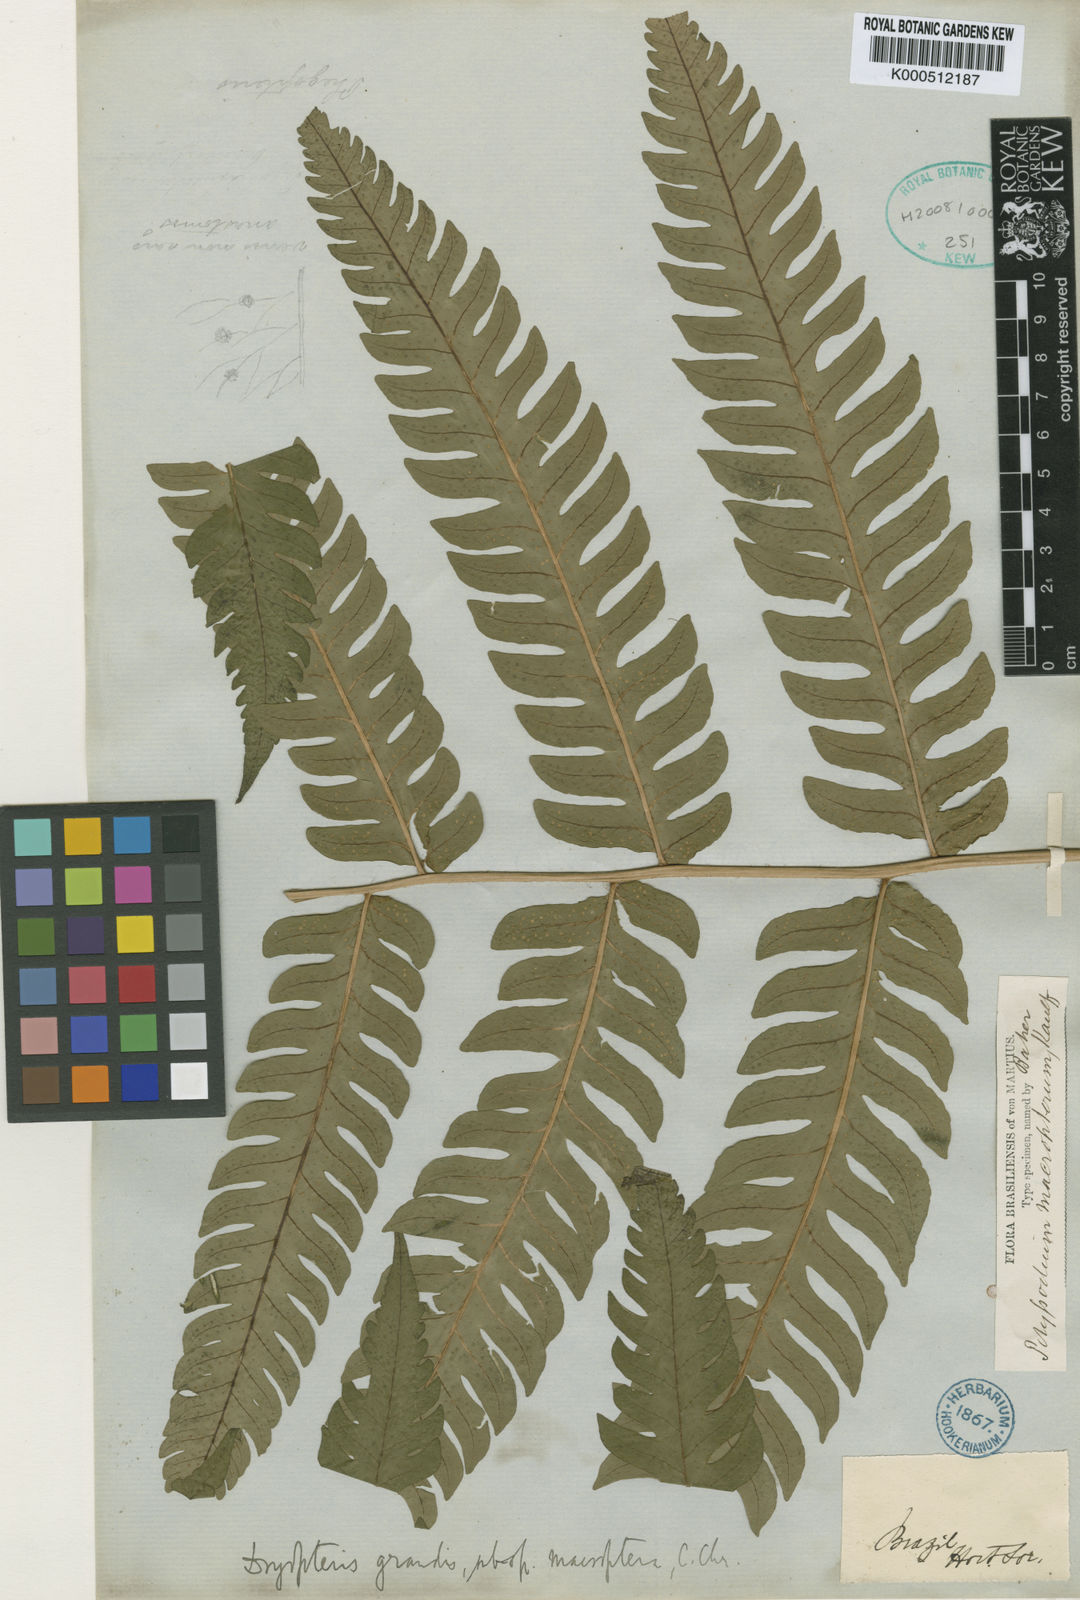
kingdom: Plantae
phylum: Tracheophyta
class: Polypodiopsida
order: Polypodiales
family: Dryopteridaceae
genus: Megalastrum
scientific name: Megalastrum grande
